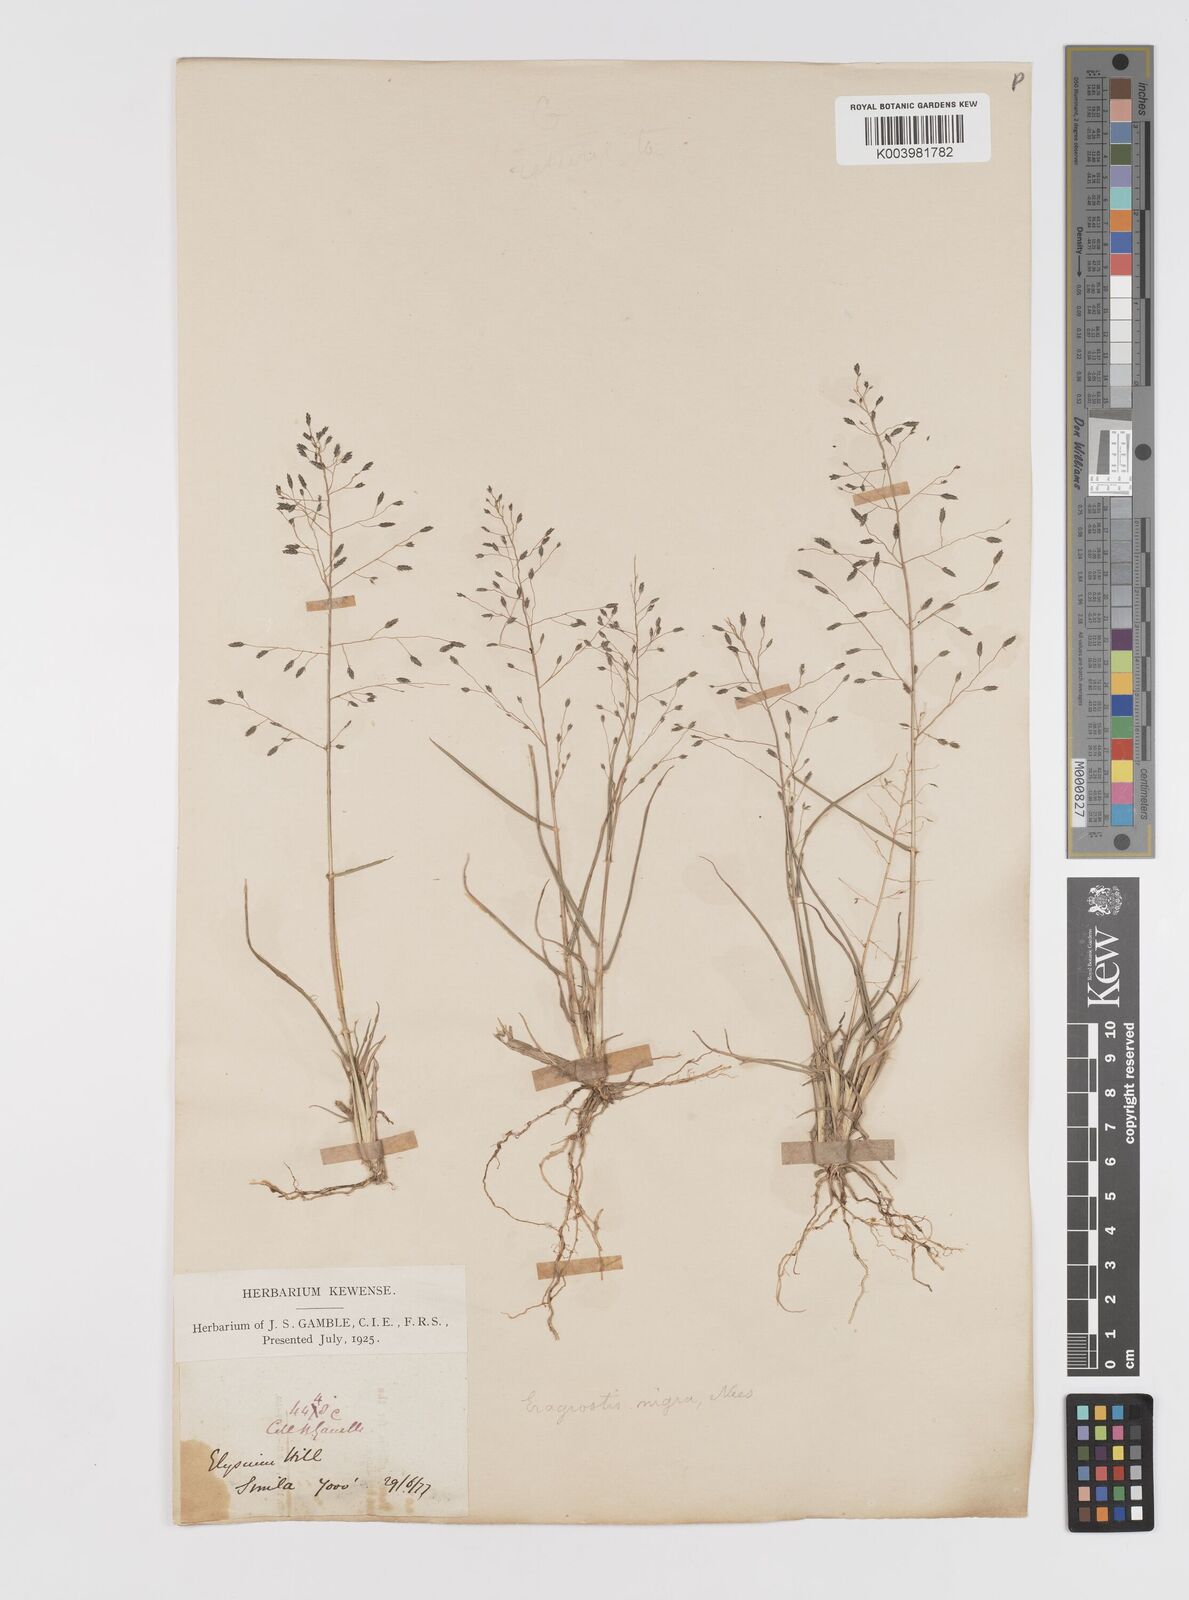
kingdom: Plantae
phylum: Tracheophyta
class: Liliopsida
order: Poales
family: Poaceae
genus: Eragrostis
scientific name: Eragrostis nigra
